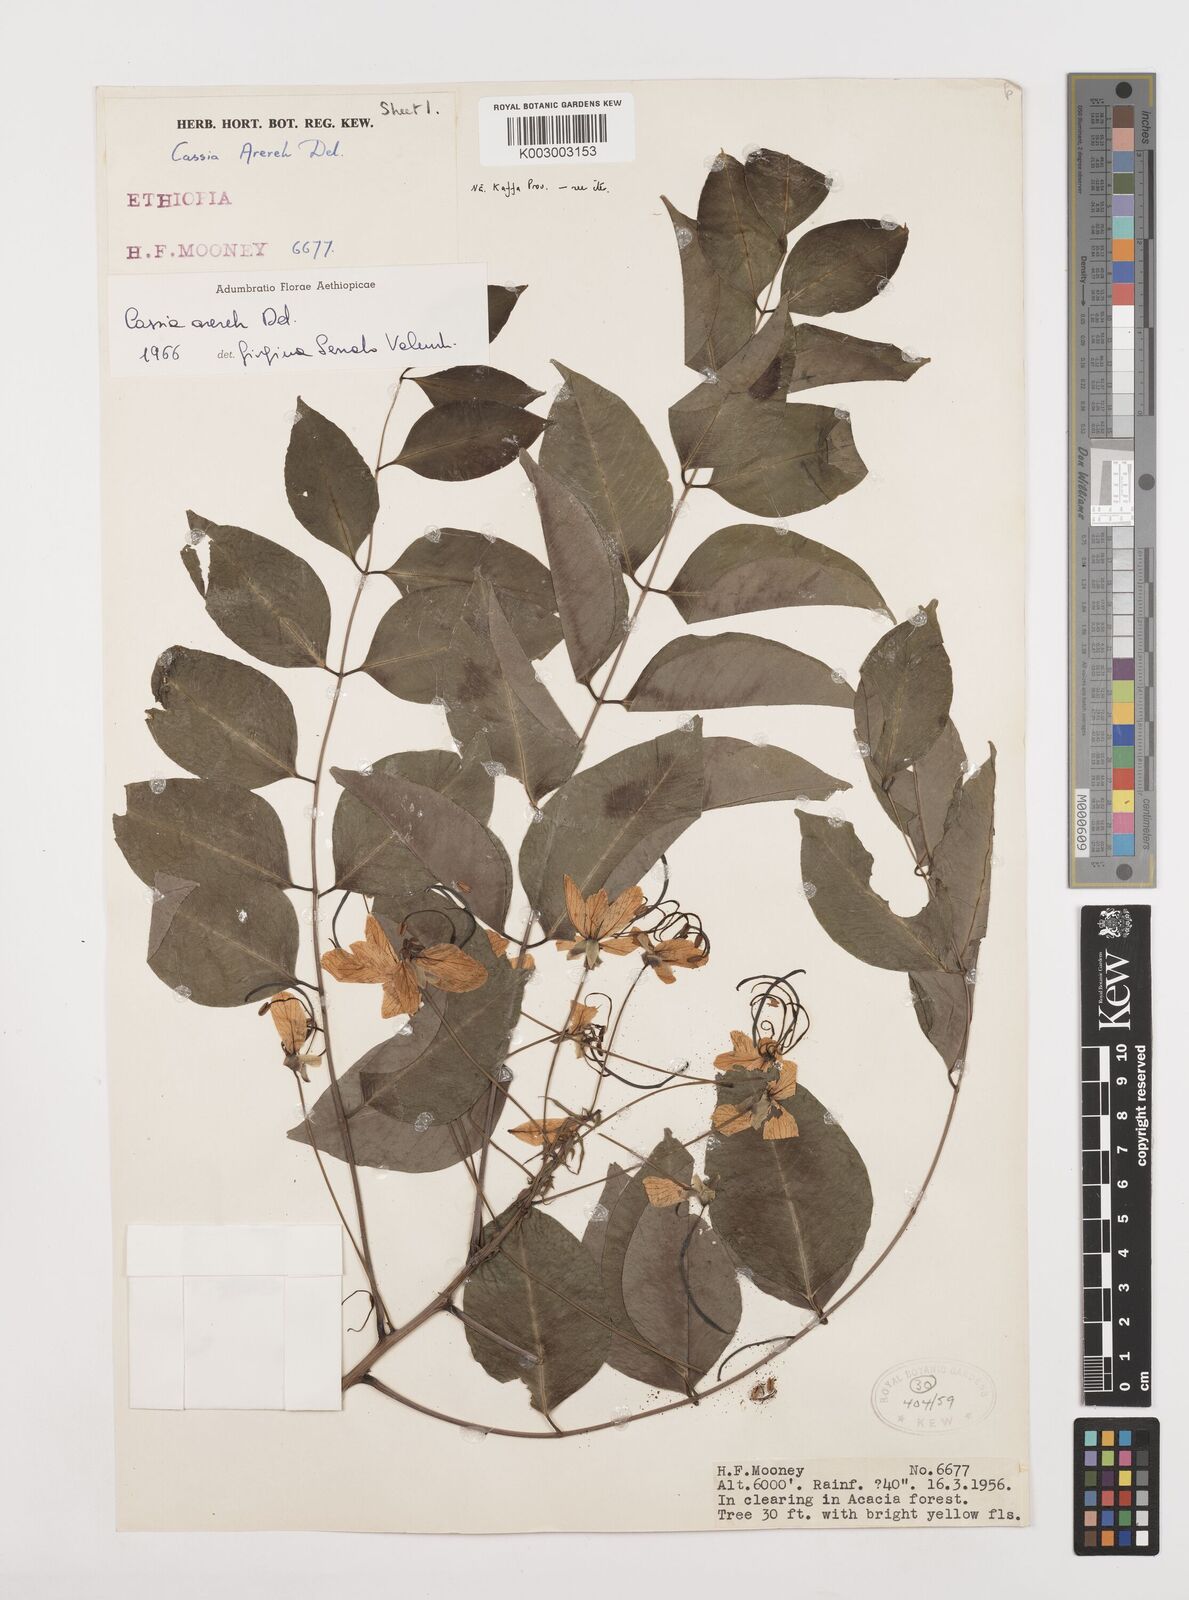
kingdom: Plantae
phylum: Tracheophyta
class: Magnoliopsida
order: Fabales
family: Fabaceae
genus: Cassia
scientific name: Cassia arereh
